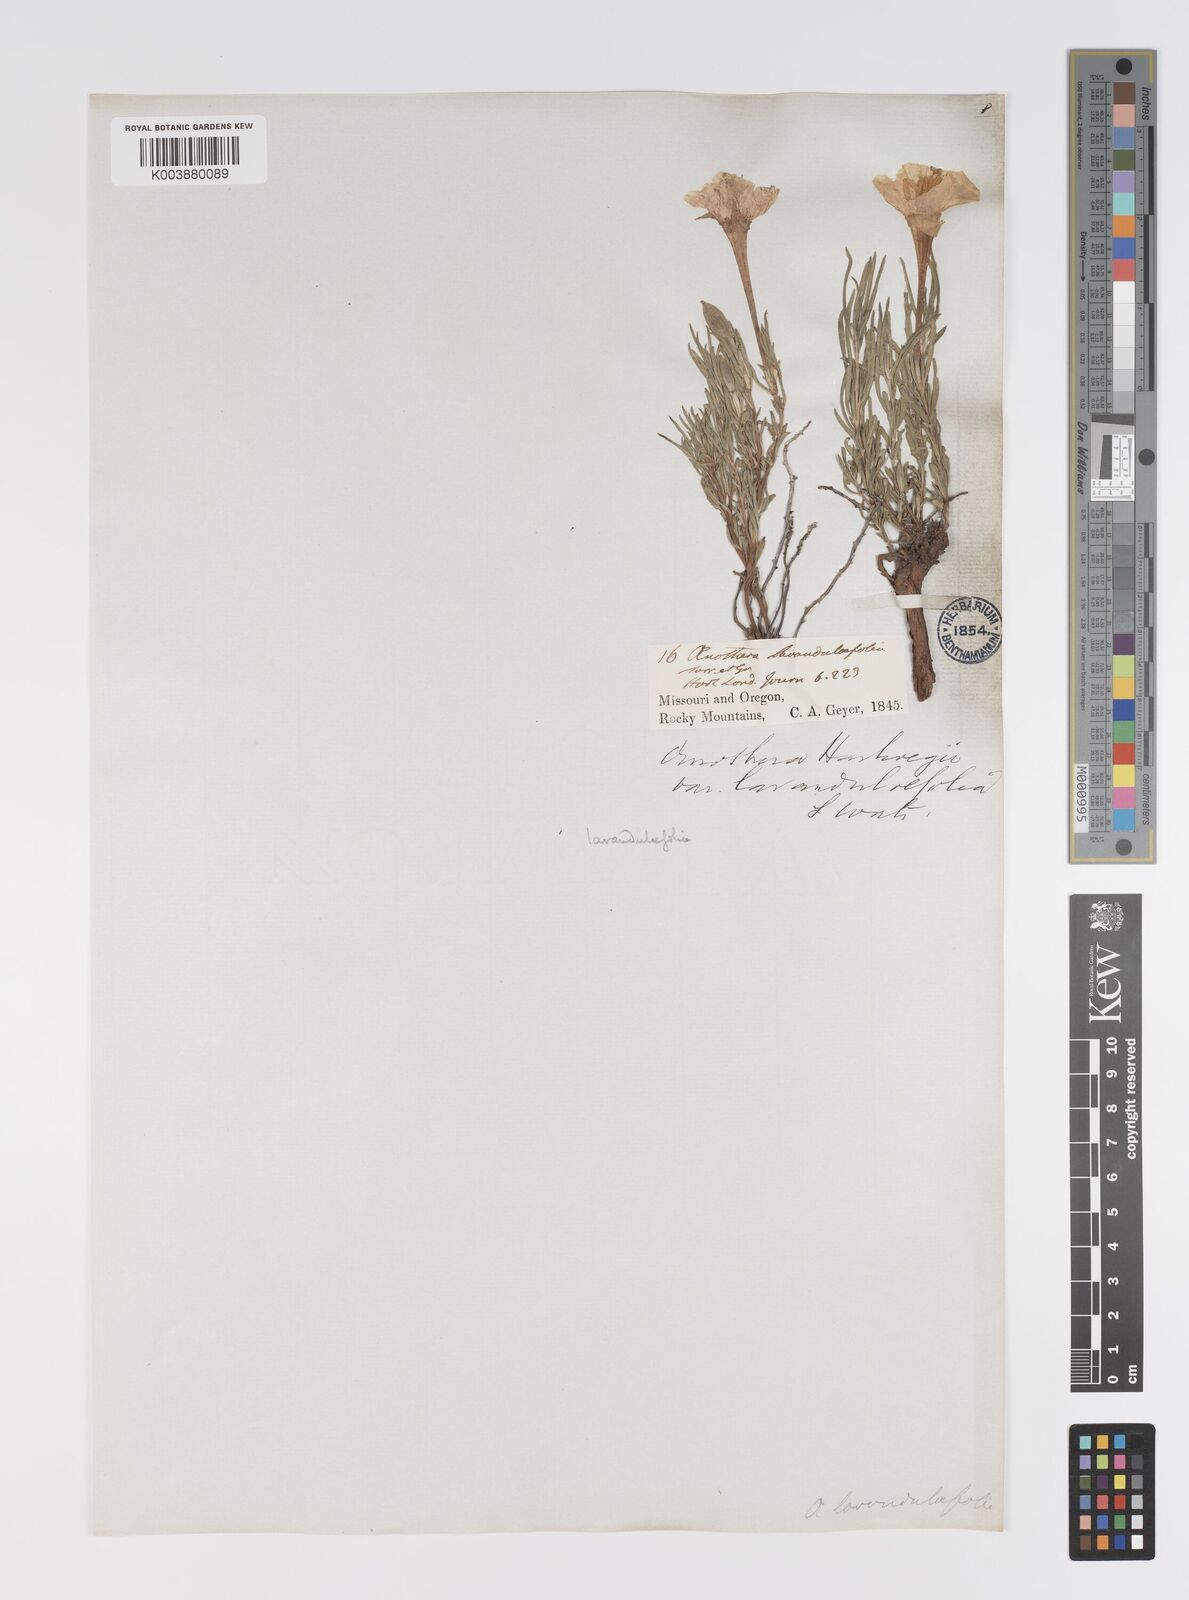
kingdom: Plantae
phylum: Tracheophyta
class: Magnoliopsida
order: Myrtales
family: Onagraceae
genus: Oenothera
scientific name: Oenothera lavandulifolia
